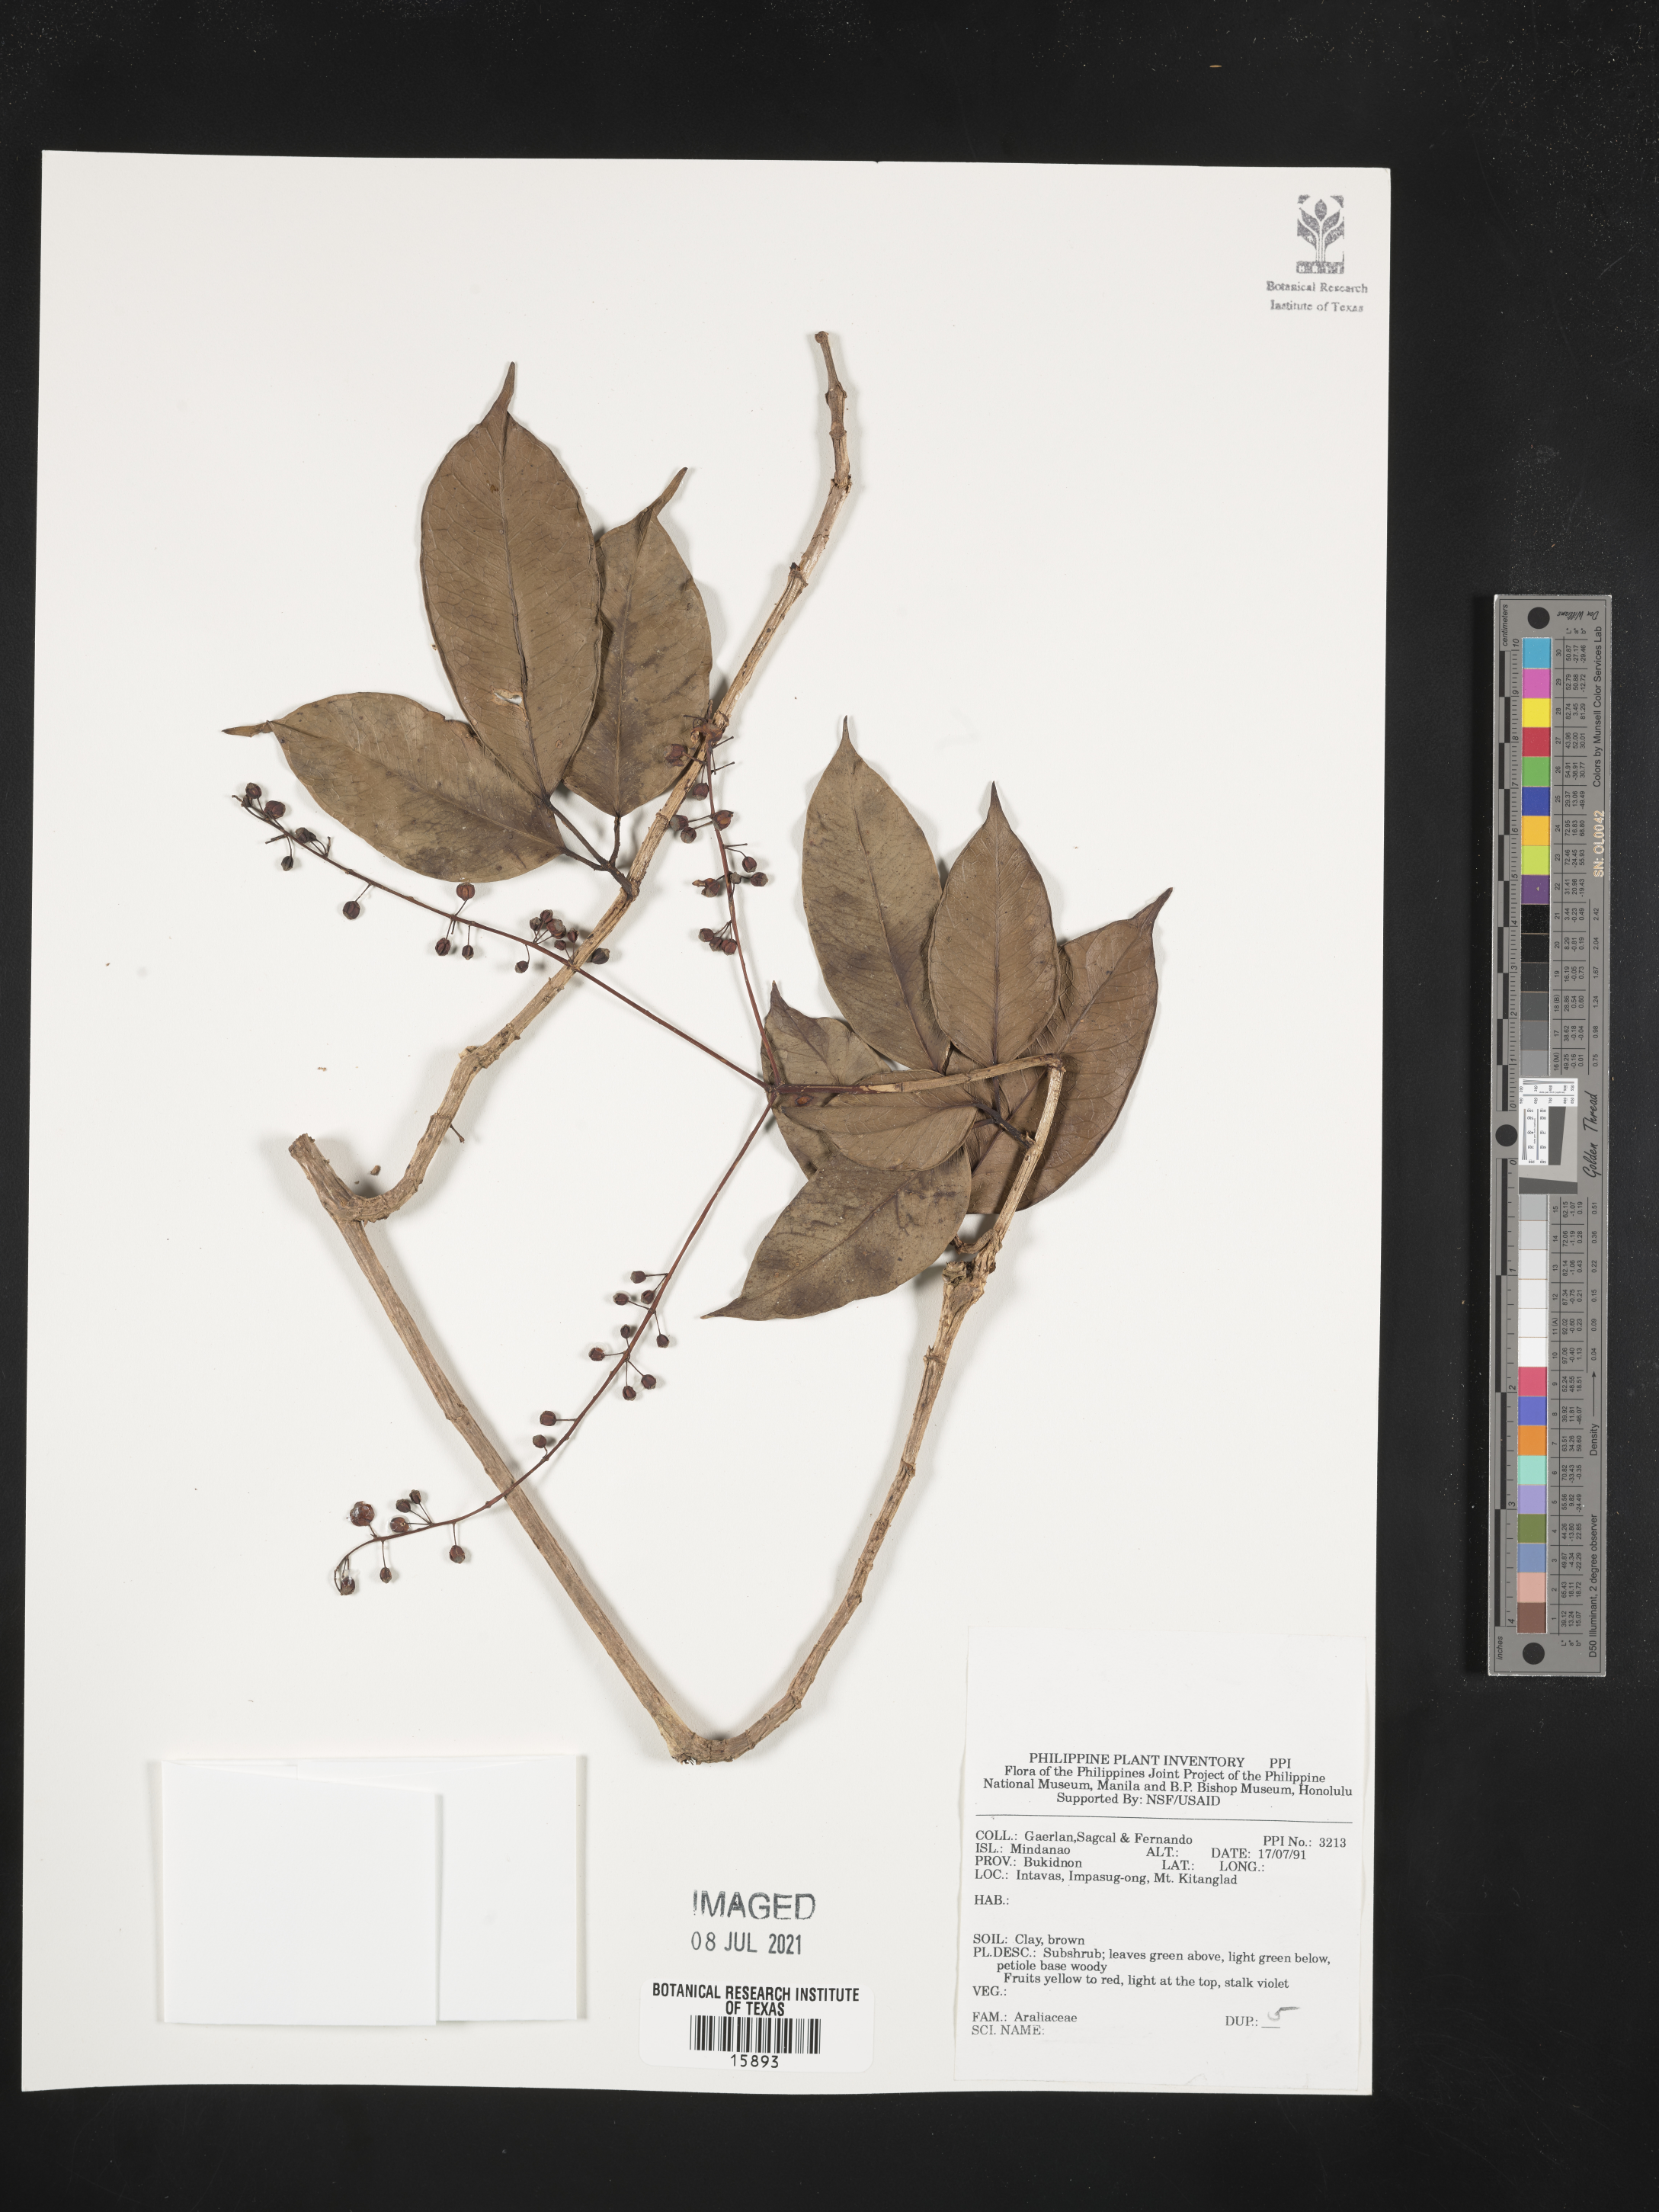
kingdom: Plantae
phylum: Tracheophyta
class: Magnoliopsida
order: Apiales
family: Araliaceae
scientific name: Araliaceae
